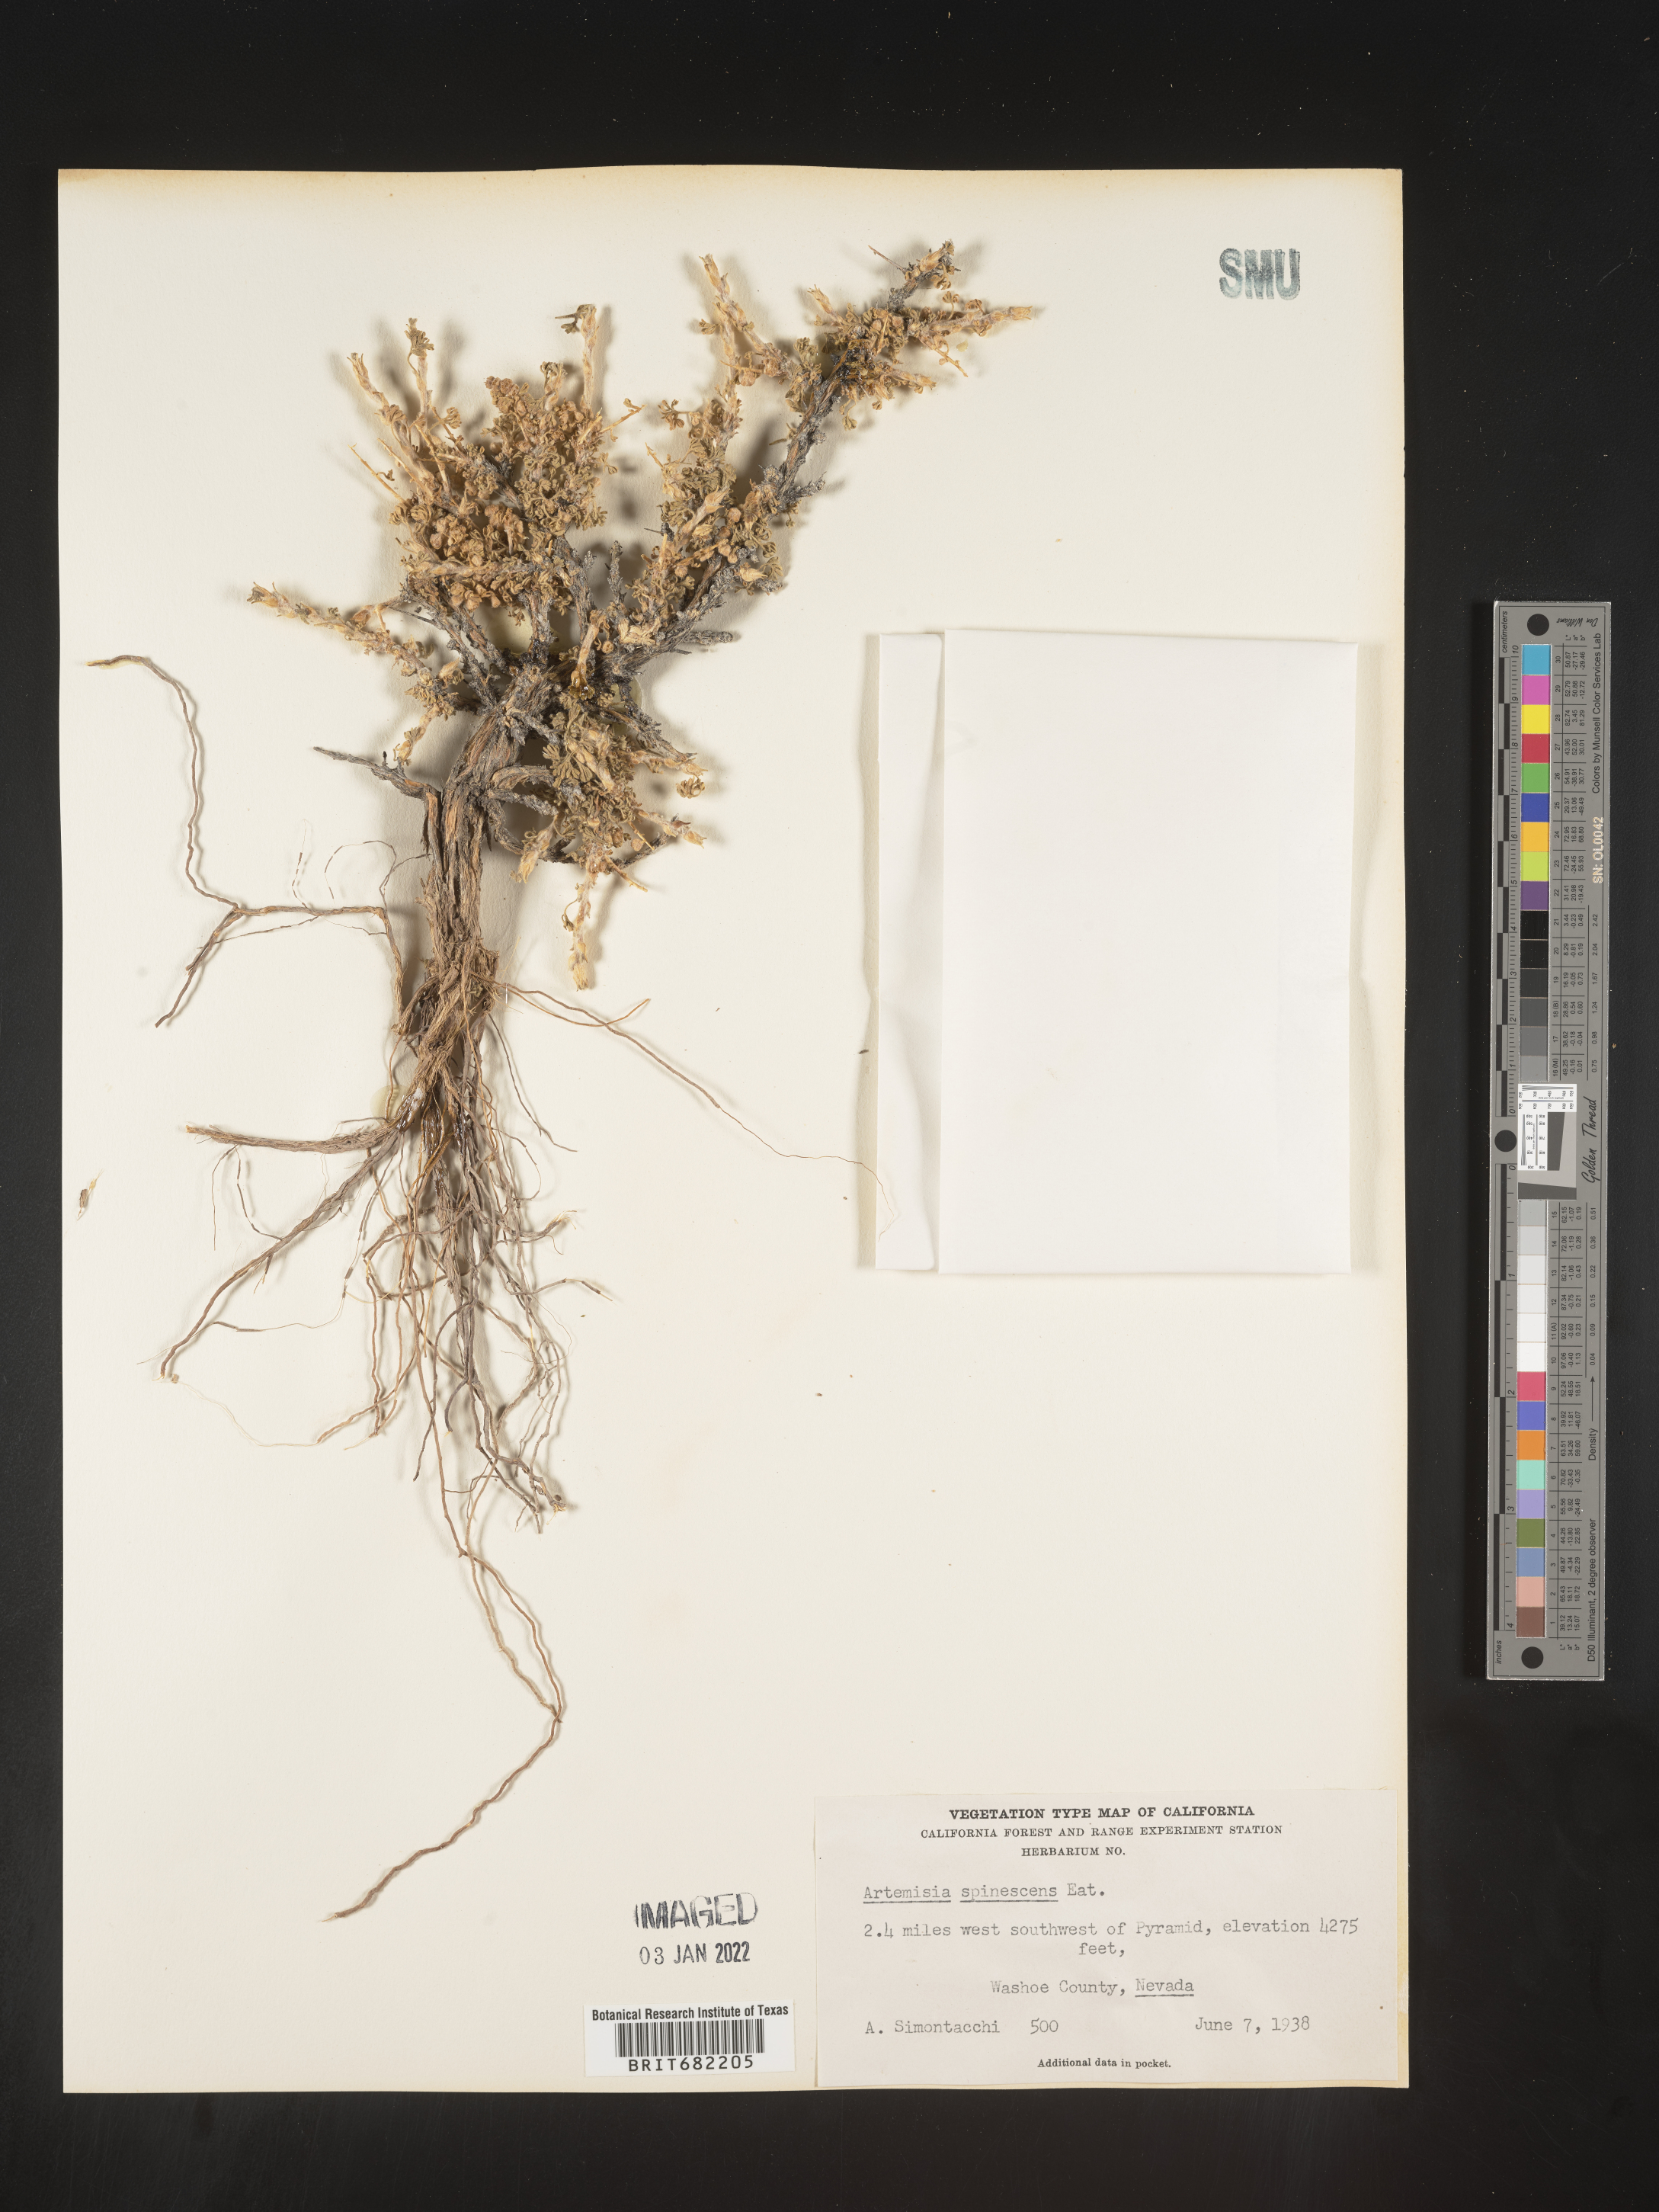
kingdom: Plantae
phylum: Tracheophyta
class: Magnoliopsida
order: Asterales
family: Asteraceae
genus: Artemisia
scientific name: Artemisia spinescens
